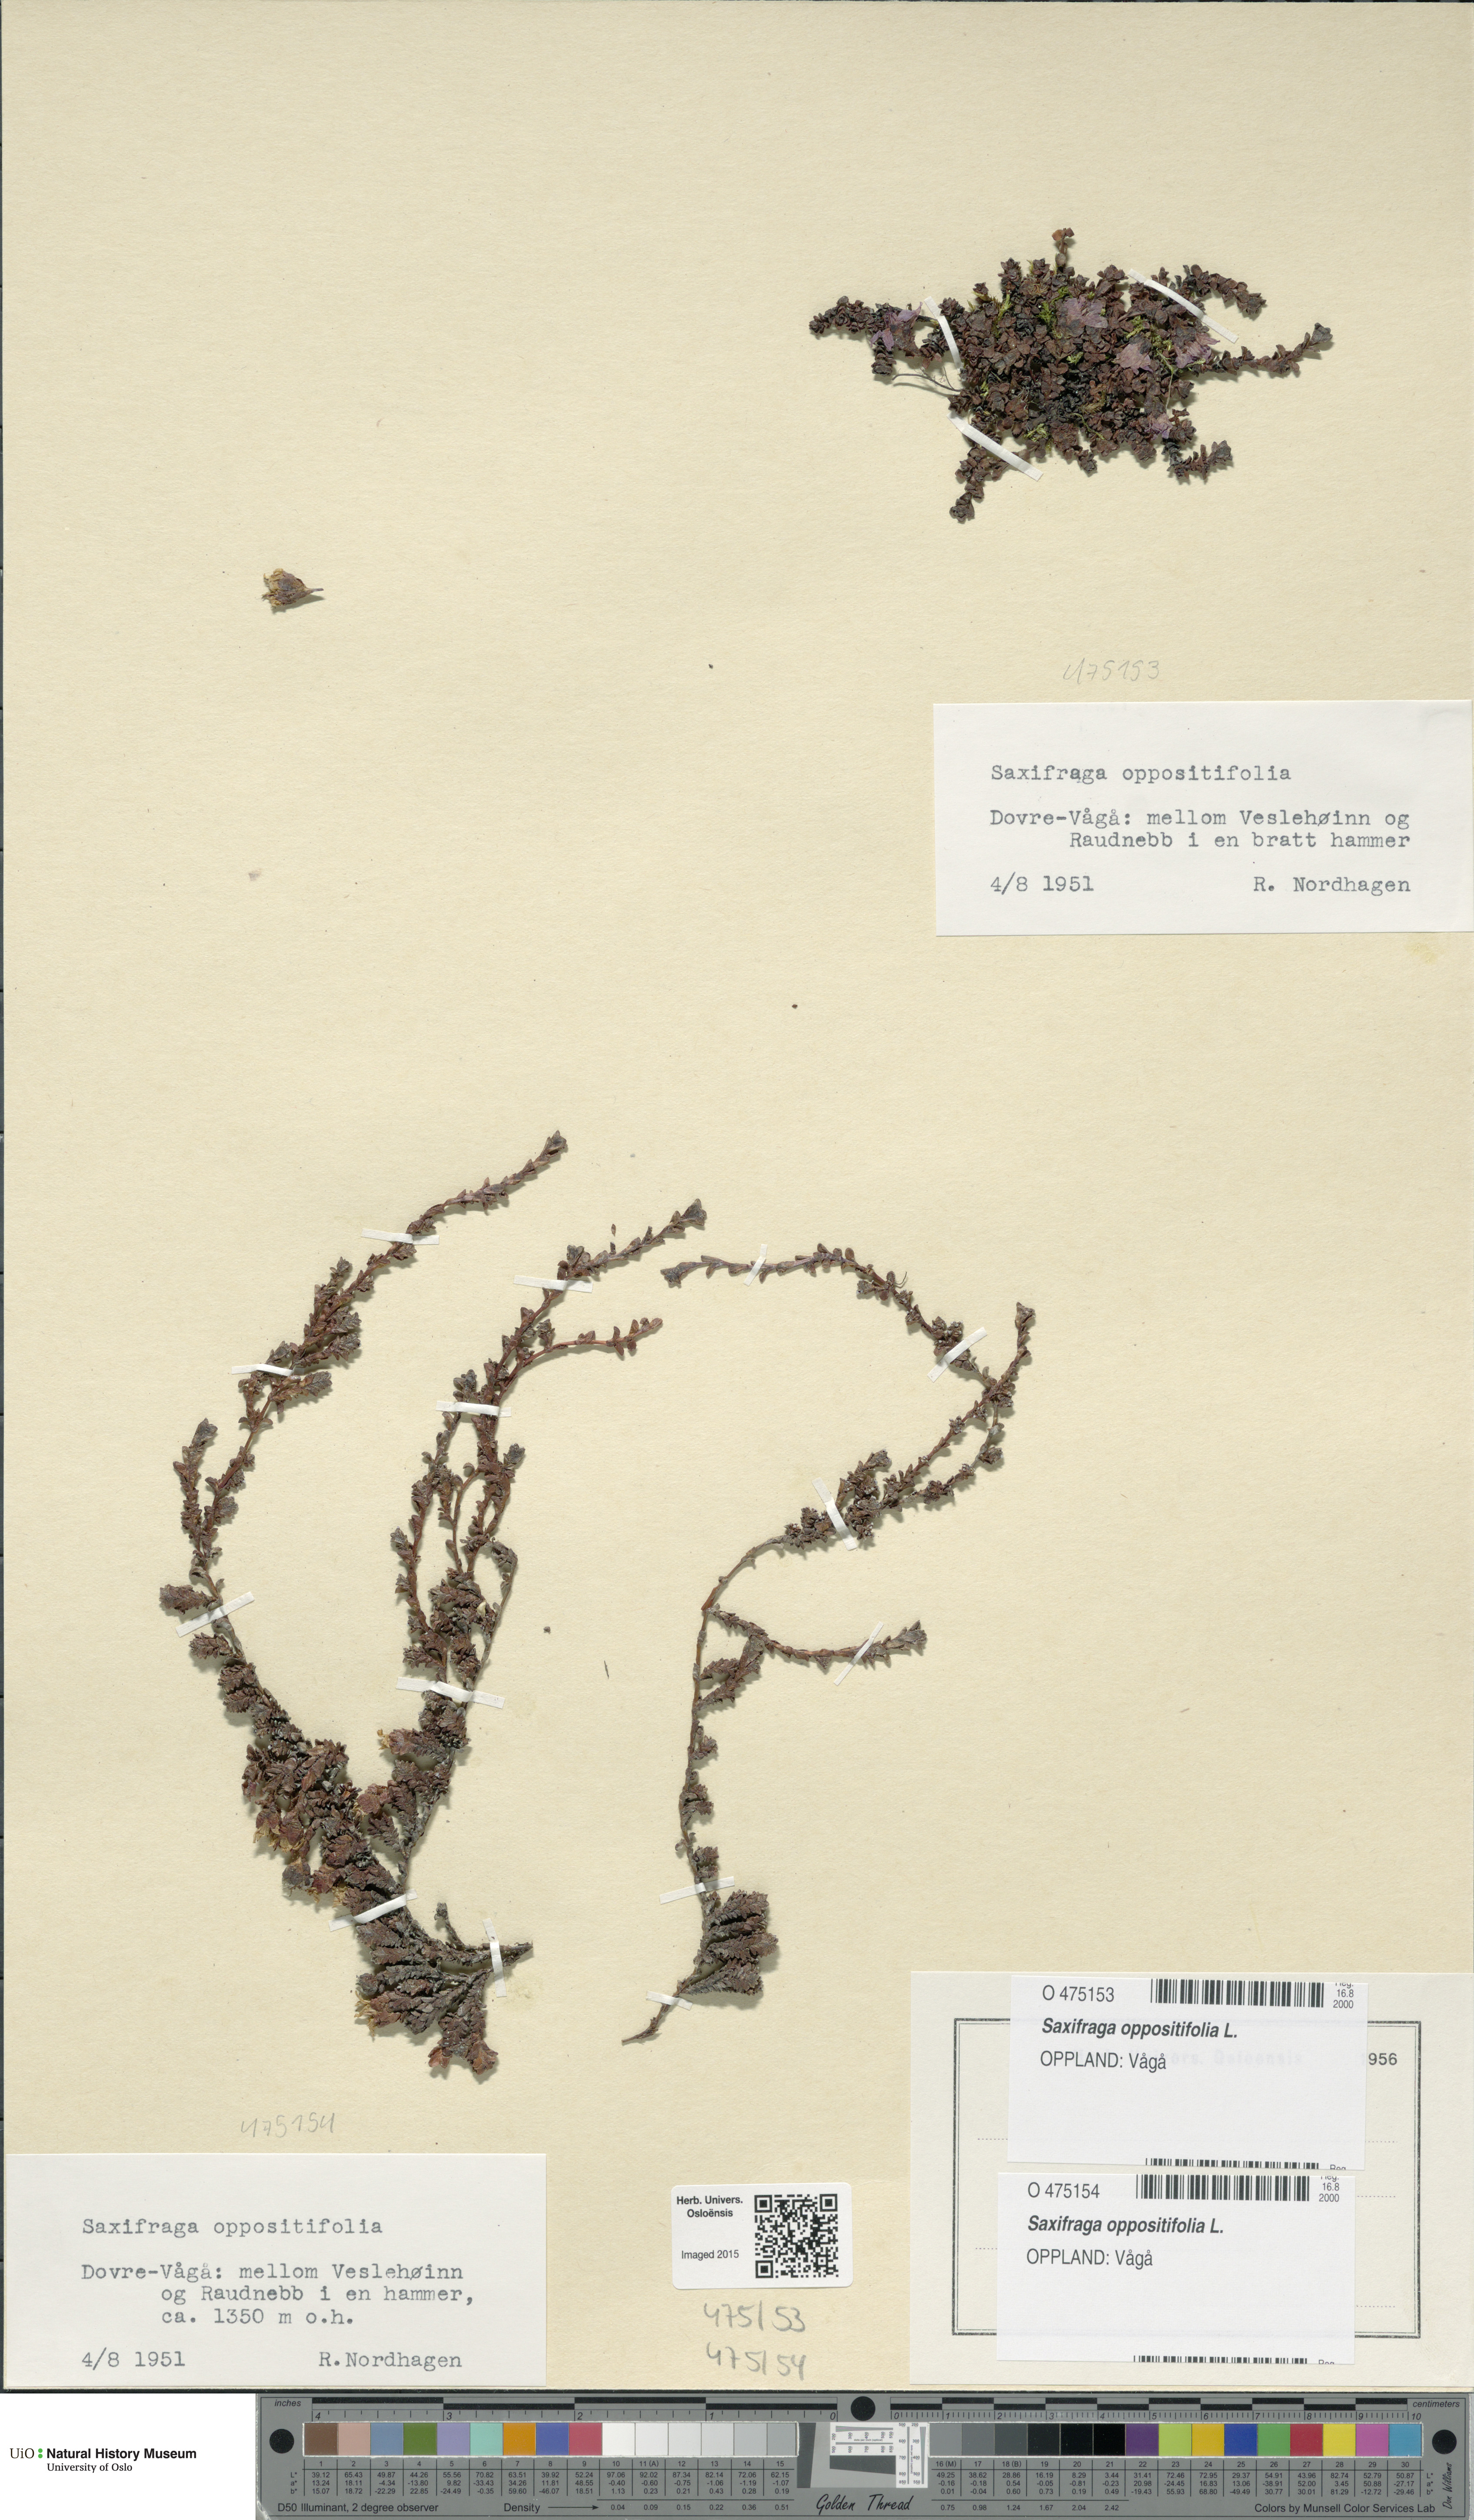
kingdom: Plantae
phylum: Tracheophyta
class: Magnoliopsida
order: Saxifragales
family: Saxifragaceae
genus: Saxifraga
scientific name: Saxifraga oppositifolia
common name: Purple saxifrage
